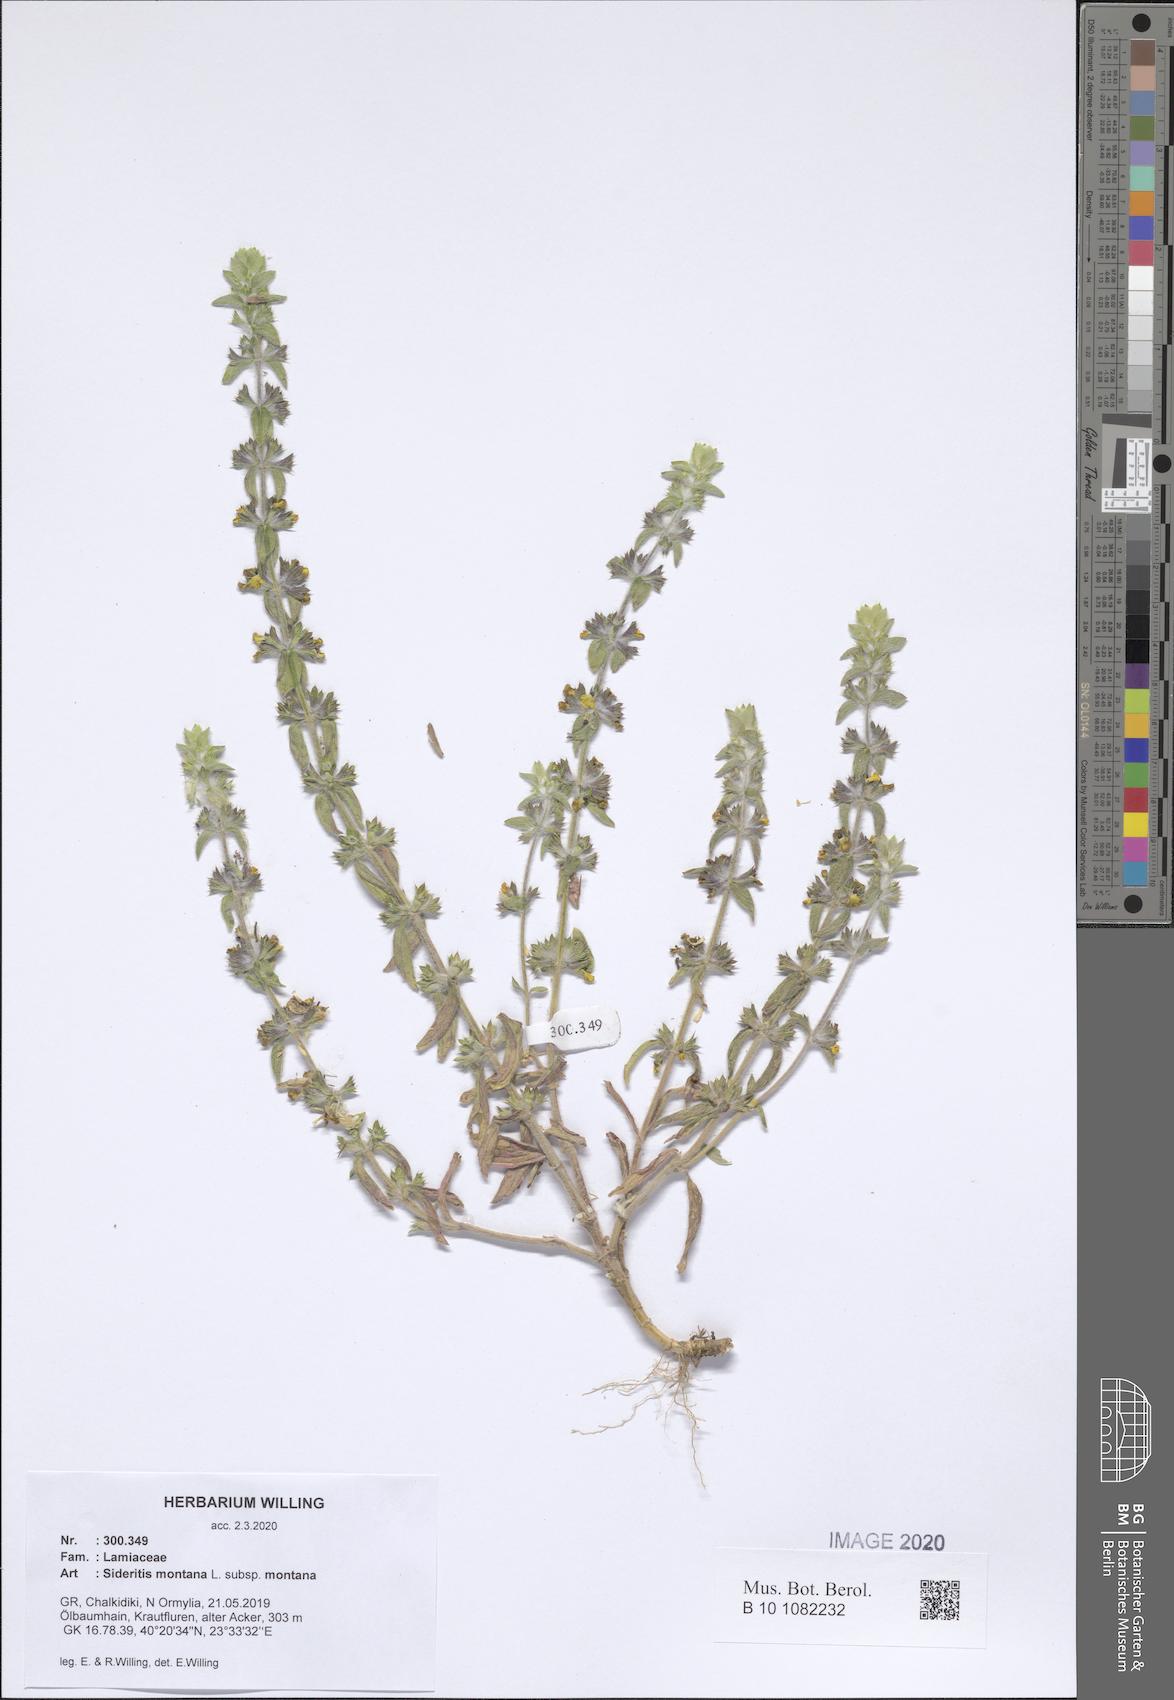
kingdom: Plantae
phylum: Tracheophyta
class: Magnoliopsida
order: Lamiales
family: Lamiaceae
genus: Sideritis
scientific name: Sideritis montana
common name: Mountain ironwort
